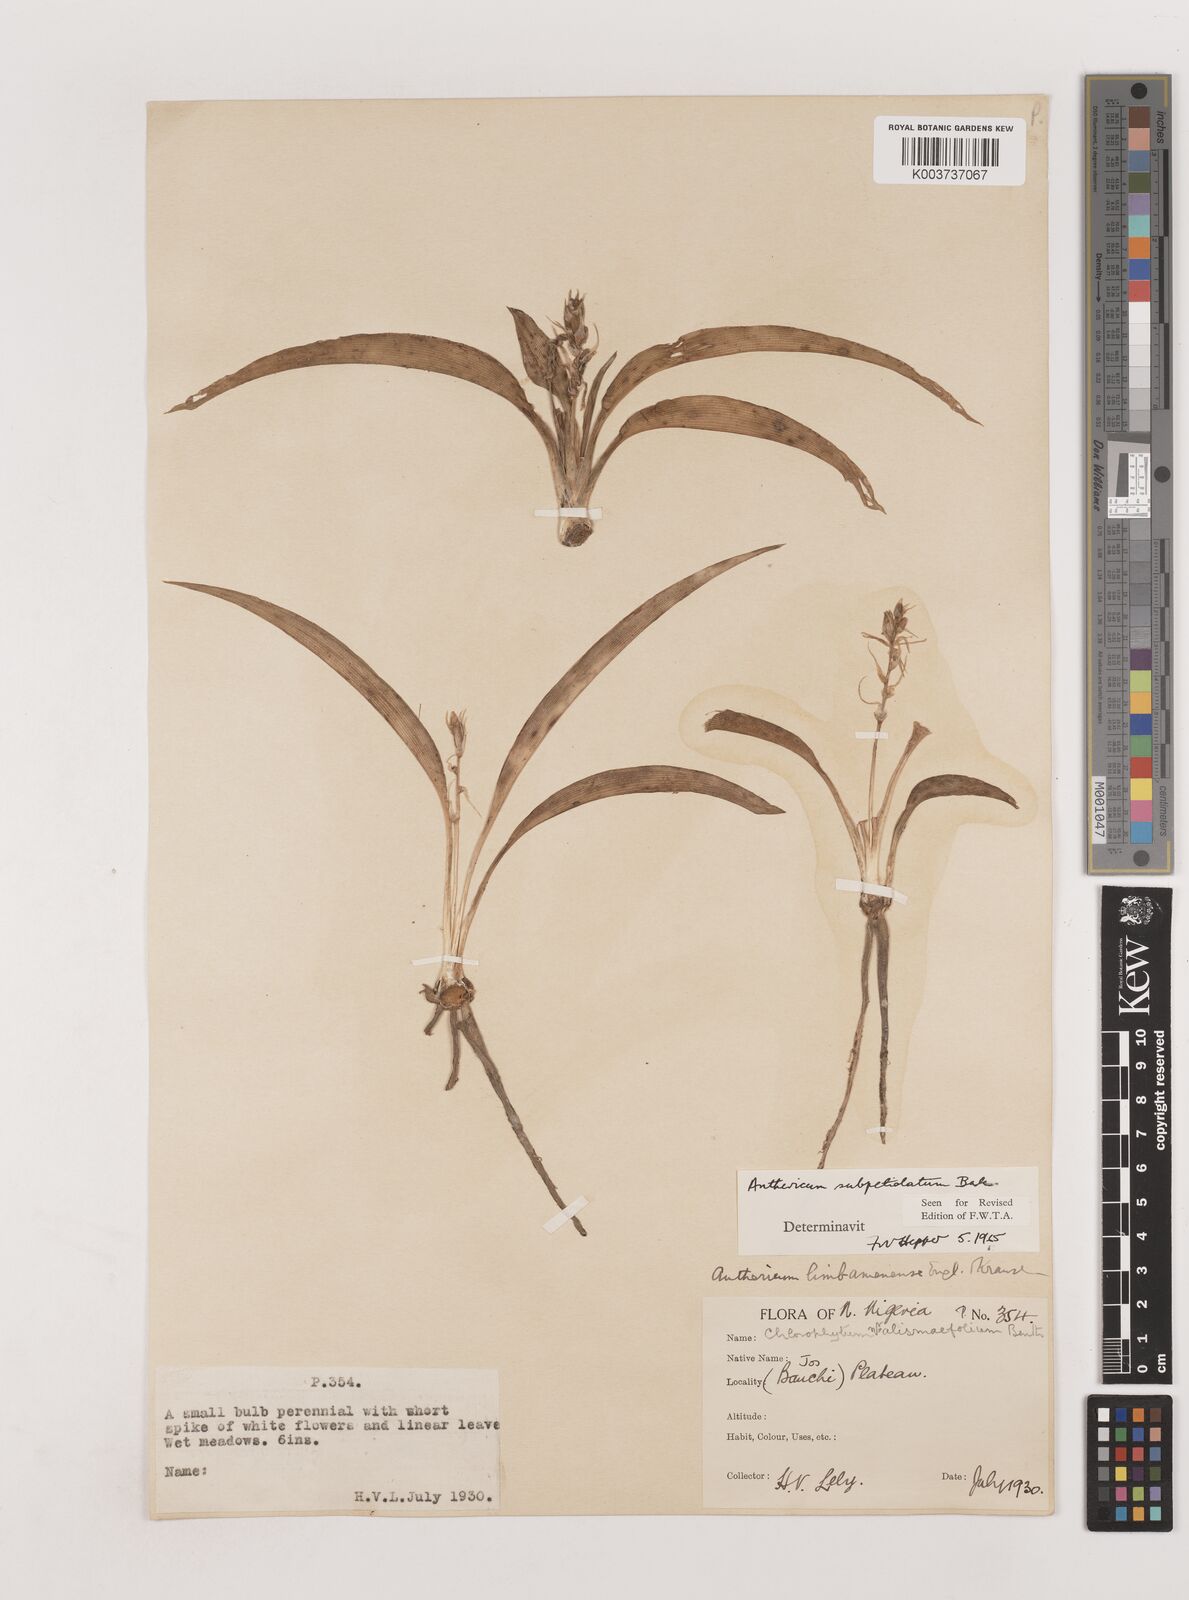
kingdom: Plantae
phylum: Tracheophyta
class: Liliopsida
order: Asparagales
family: Asparagaceae
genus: Chlorophytum
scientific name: Chlorophytum subpetiolatum
